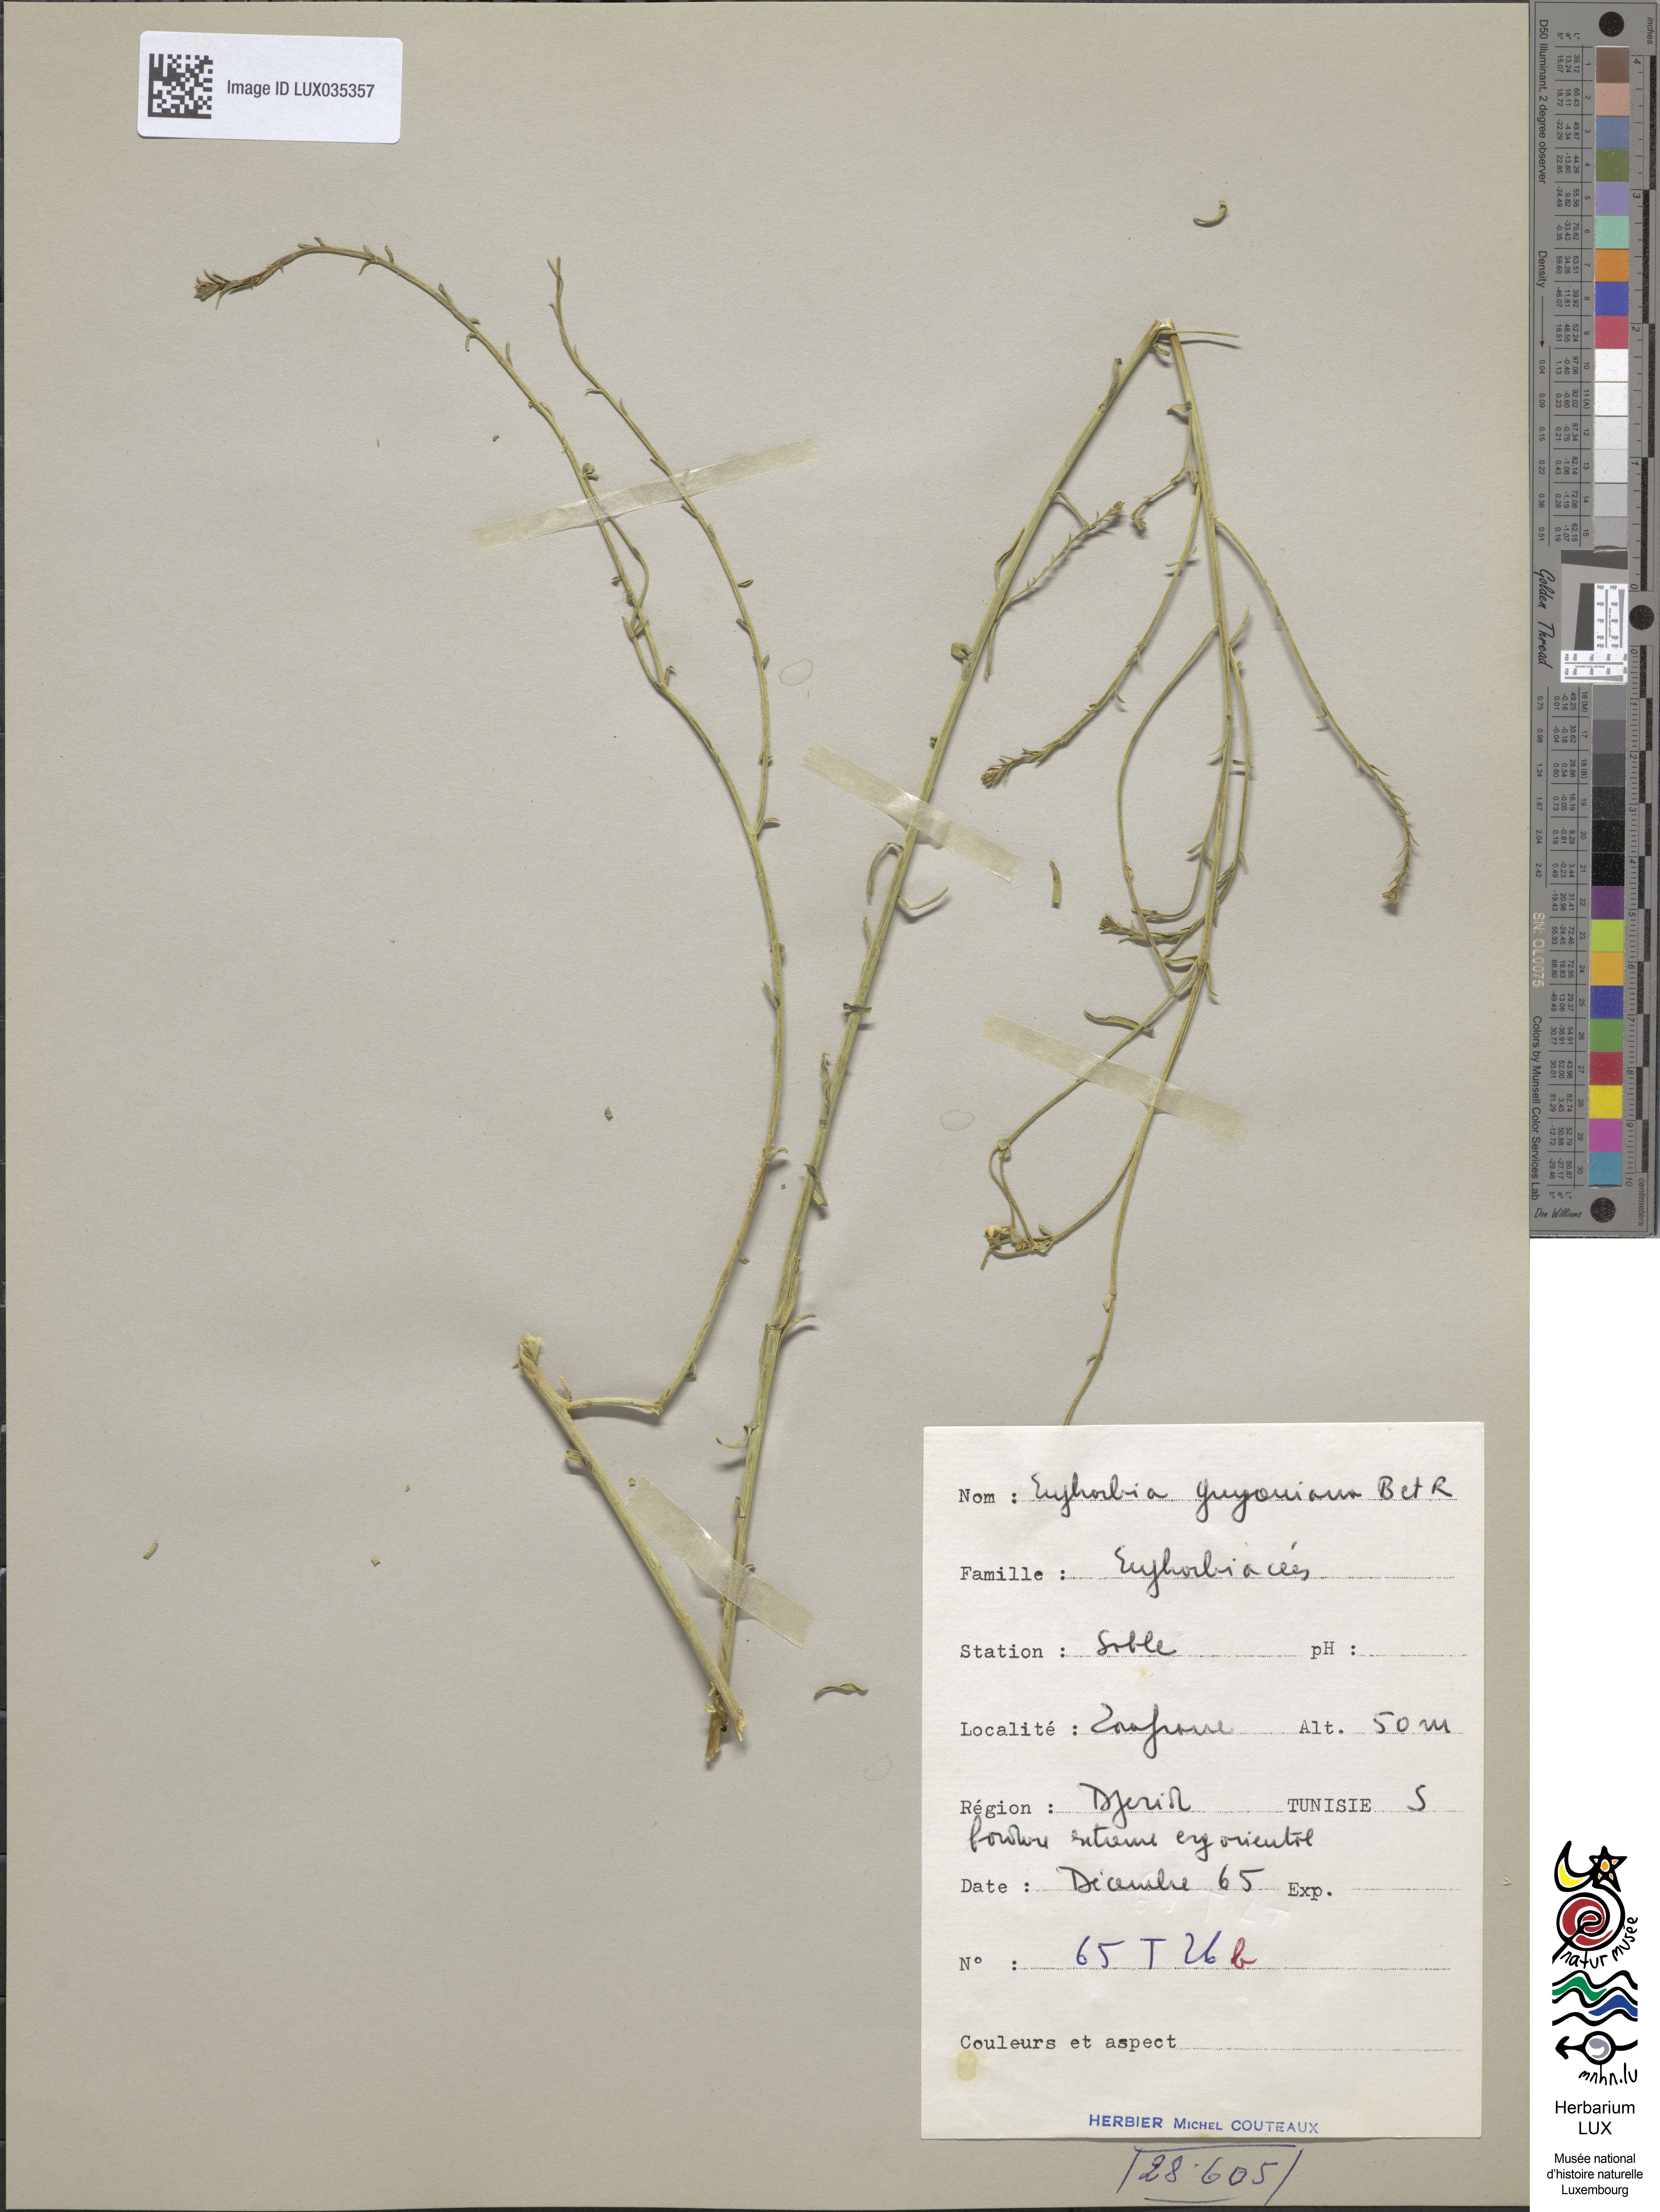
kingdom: Plantae
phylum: Tracheophyta
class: Magnoliopsida
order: Malpighiales
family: Euphorbiaceae
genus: Euphorbia
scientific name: Euphorbia
